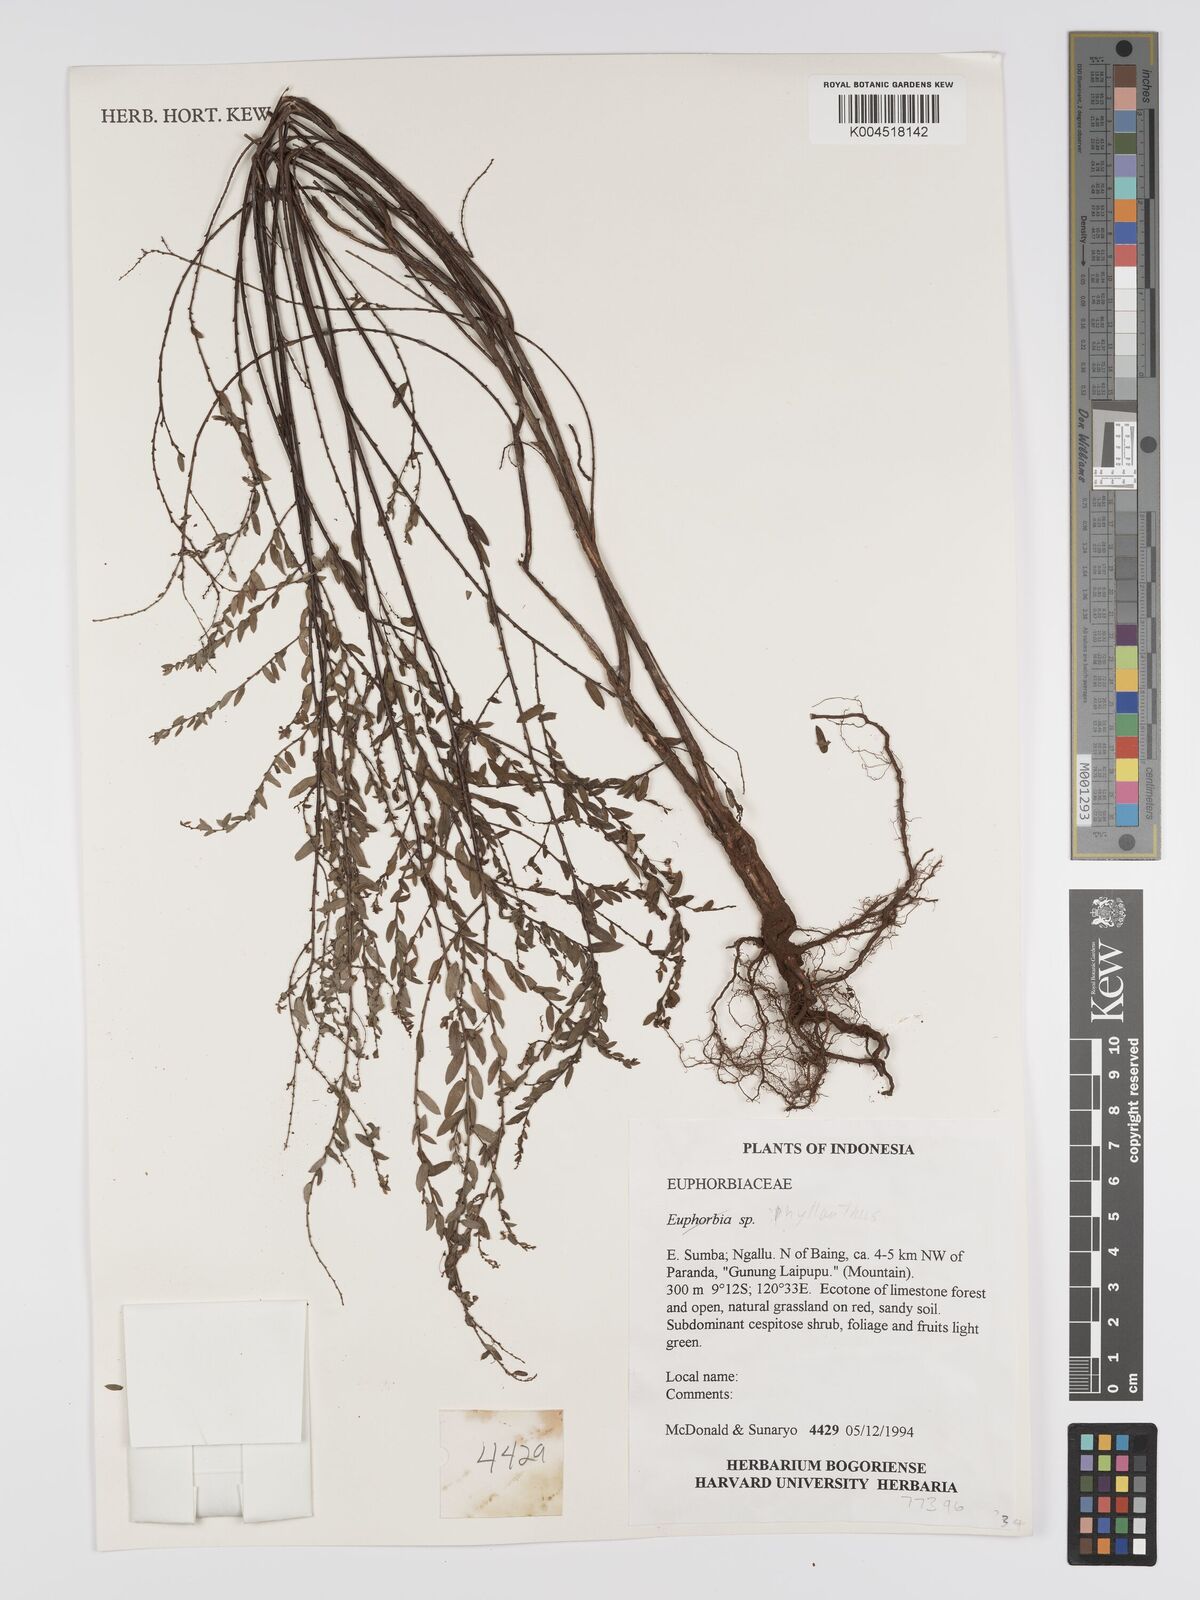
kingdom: Plantae
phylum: Tracheophyta
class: Magnoliopsida
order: Malpighiales
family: Phyllanthaceae
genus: Phyllanthus
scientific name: Phyllanthus
